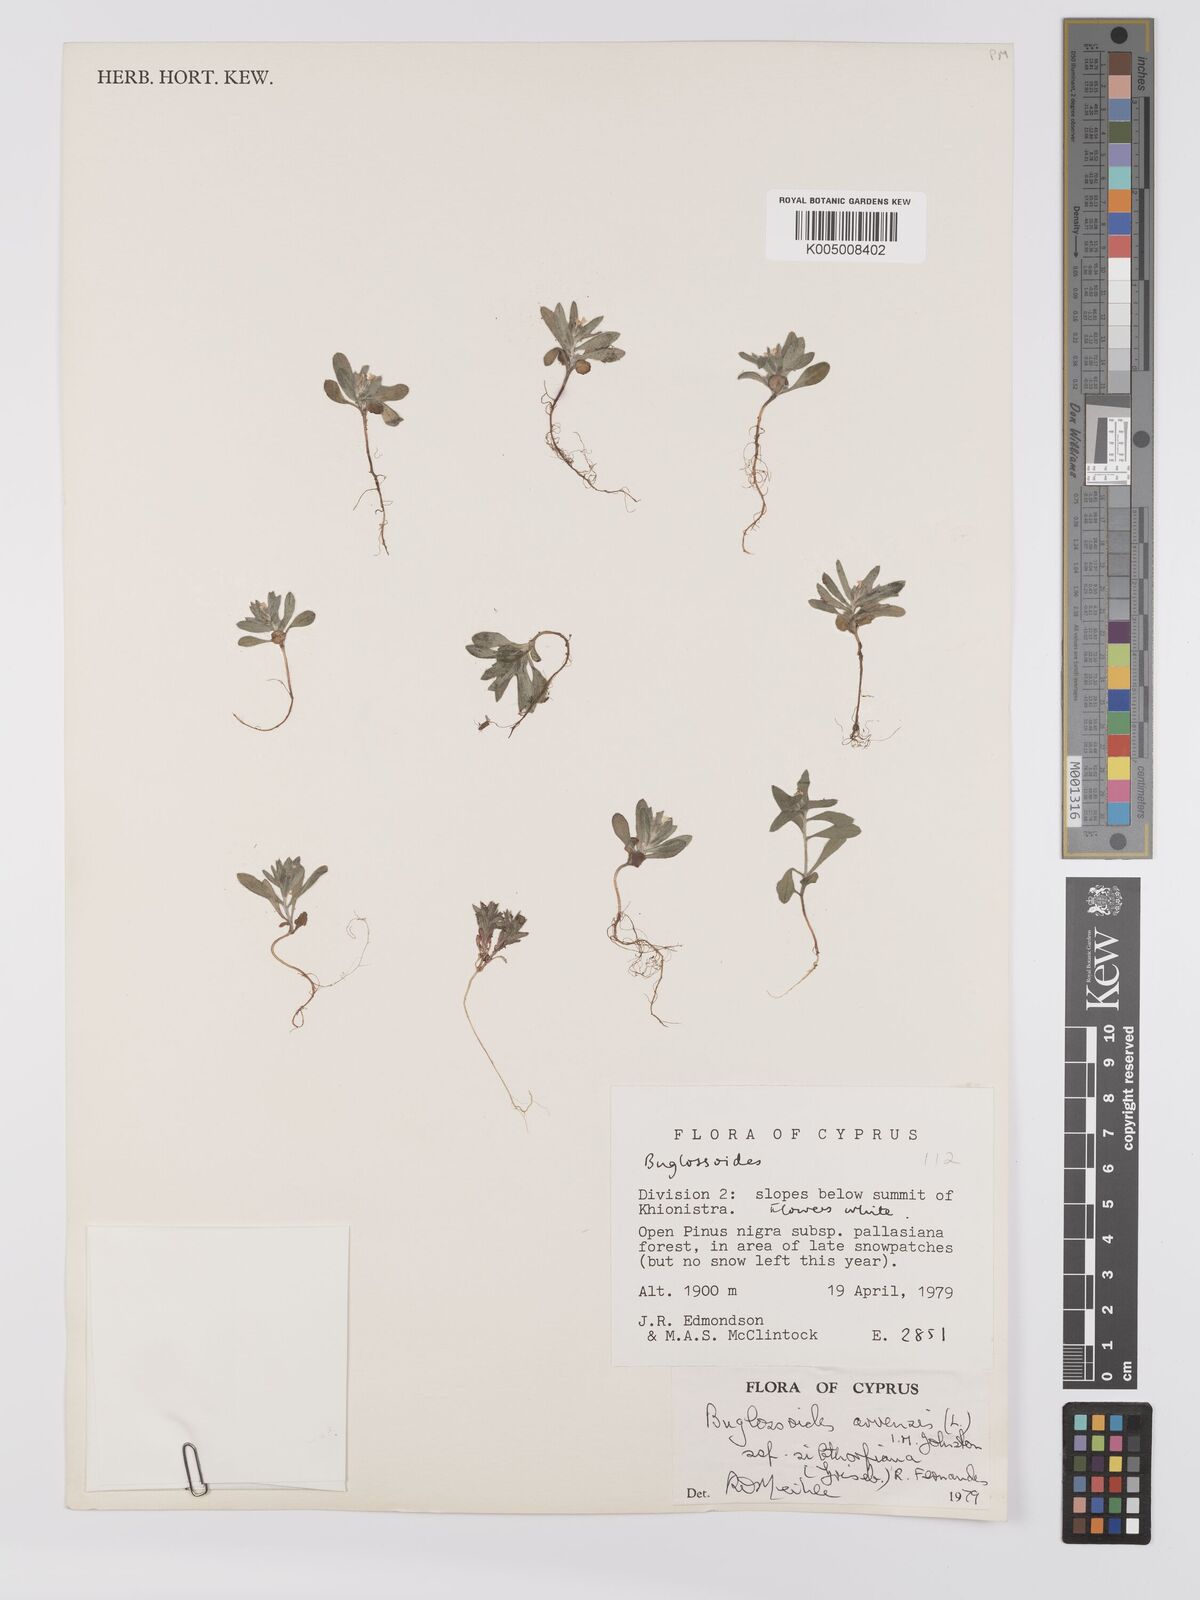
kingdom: Plantae
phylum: Tracheophyta
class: Magnoliopsida
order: Boraginales
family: Boraginaceae
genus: Buglossoides
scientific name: Buglossoides arvensis
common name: Corn gromwell
